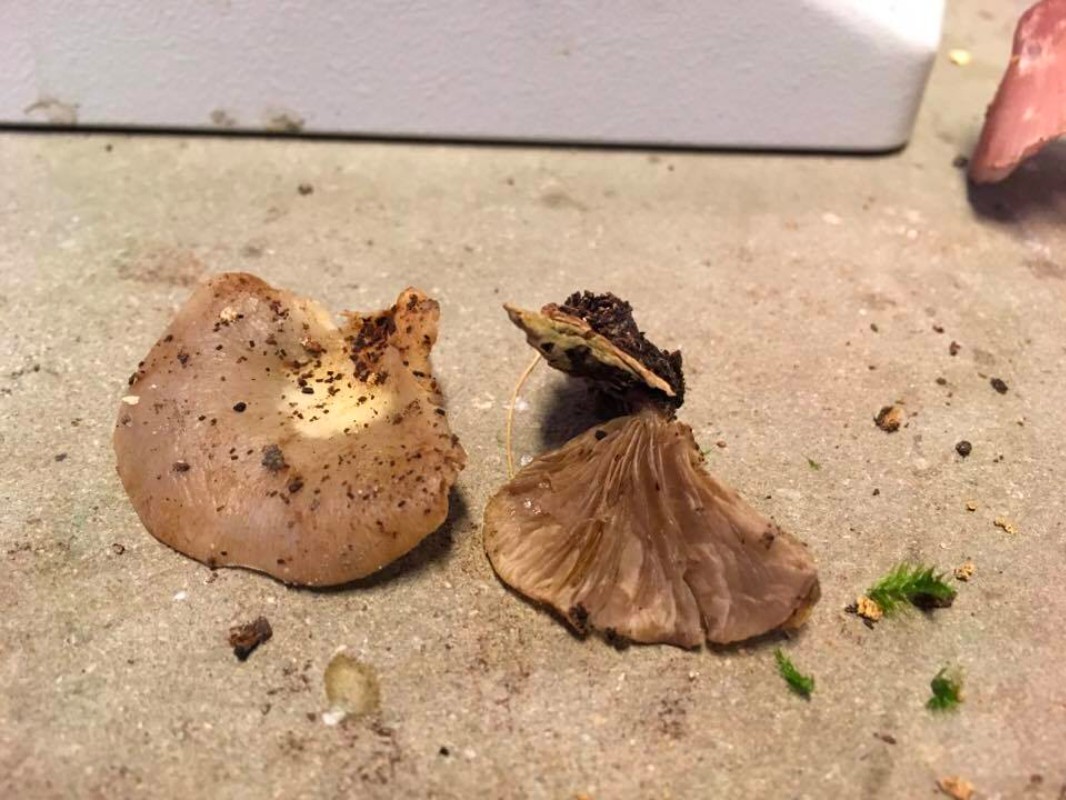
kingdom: Fungi
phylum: Basidiomycota
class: Agaricomycetes
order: Agaricales
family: Crepidotaceae
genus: Crepidotus
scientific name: Crepidotus mollis
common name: blød muslingesvamp
